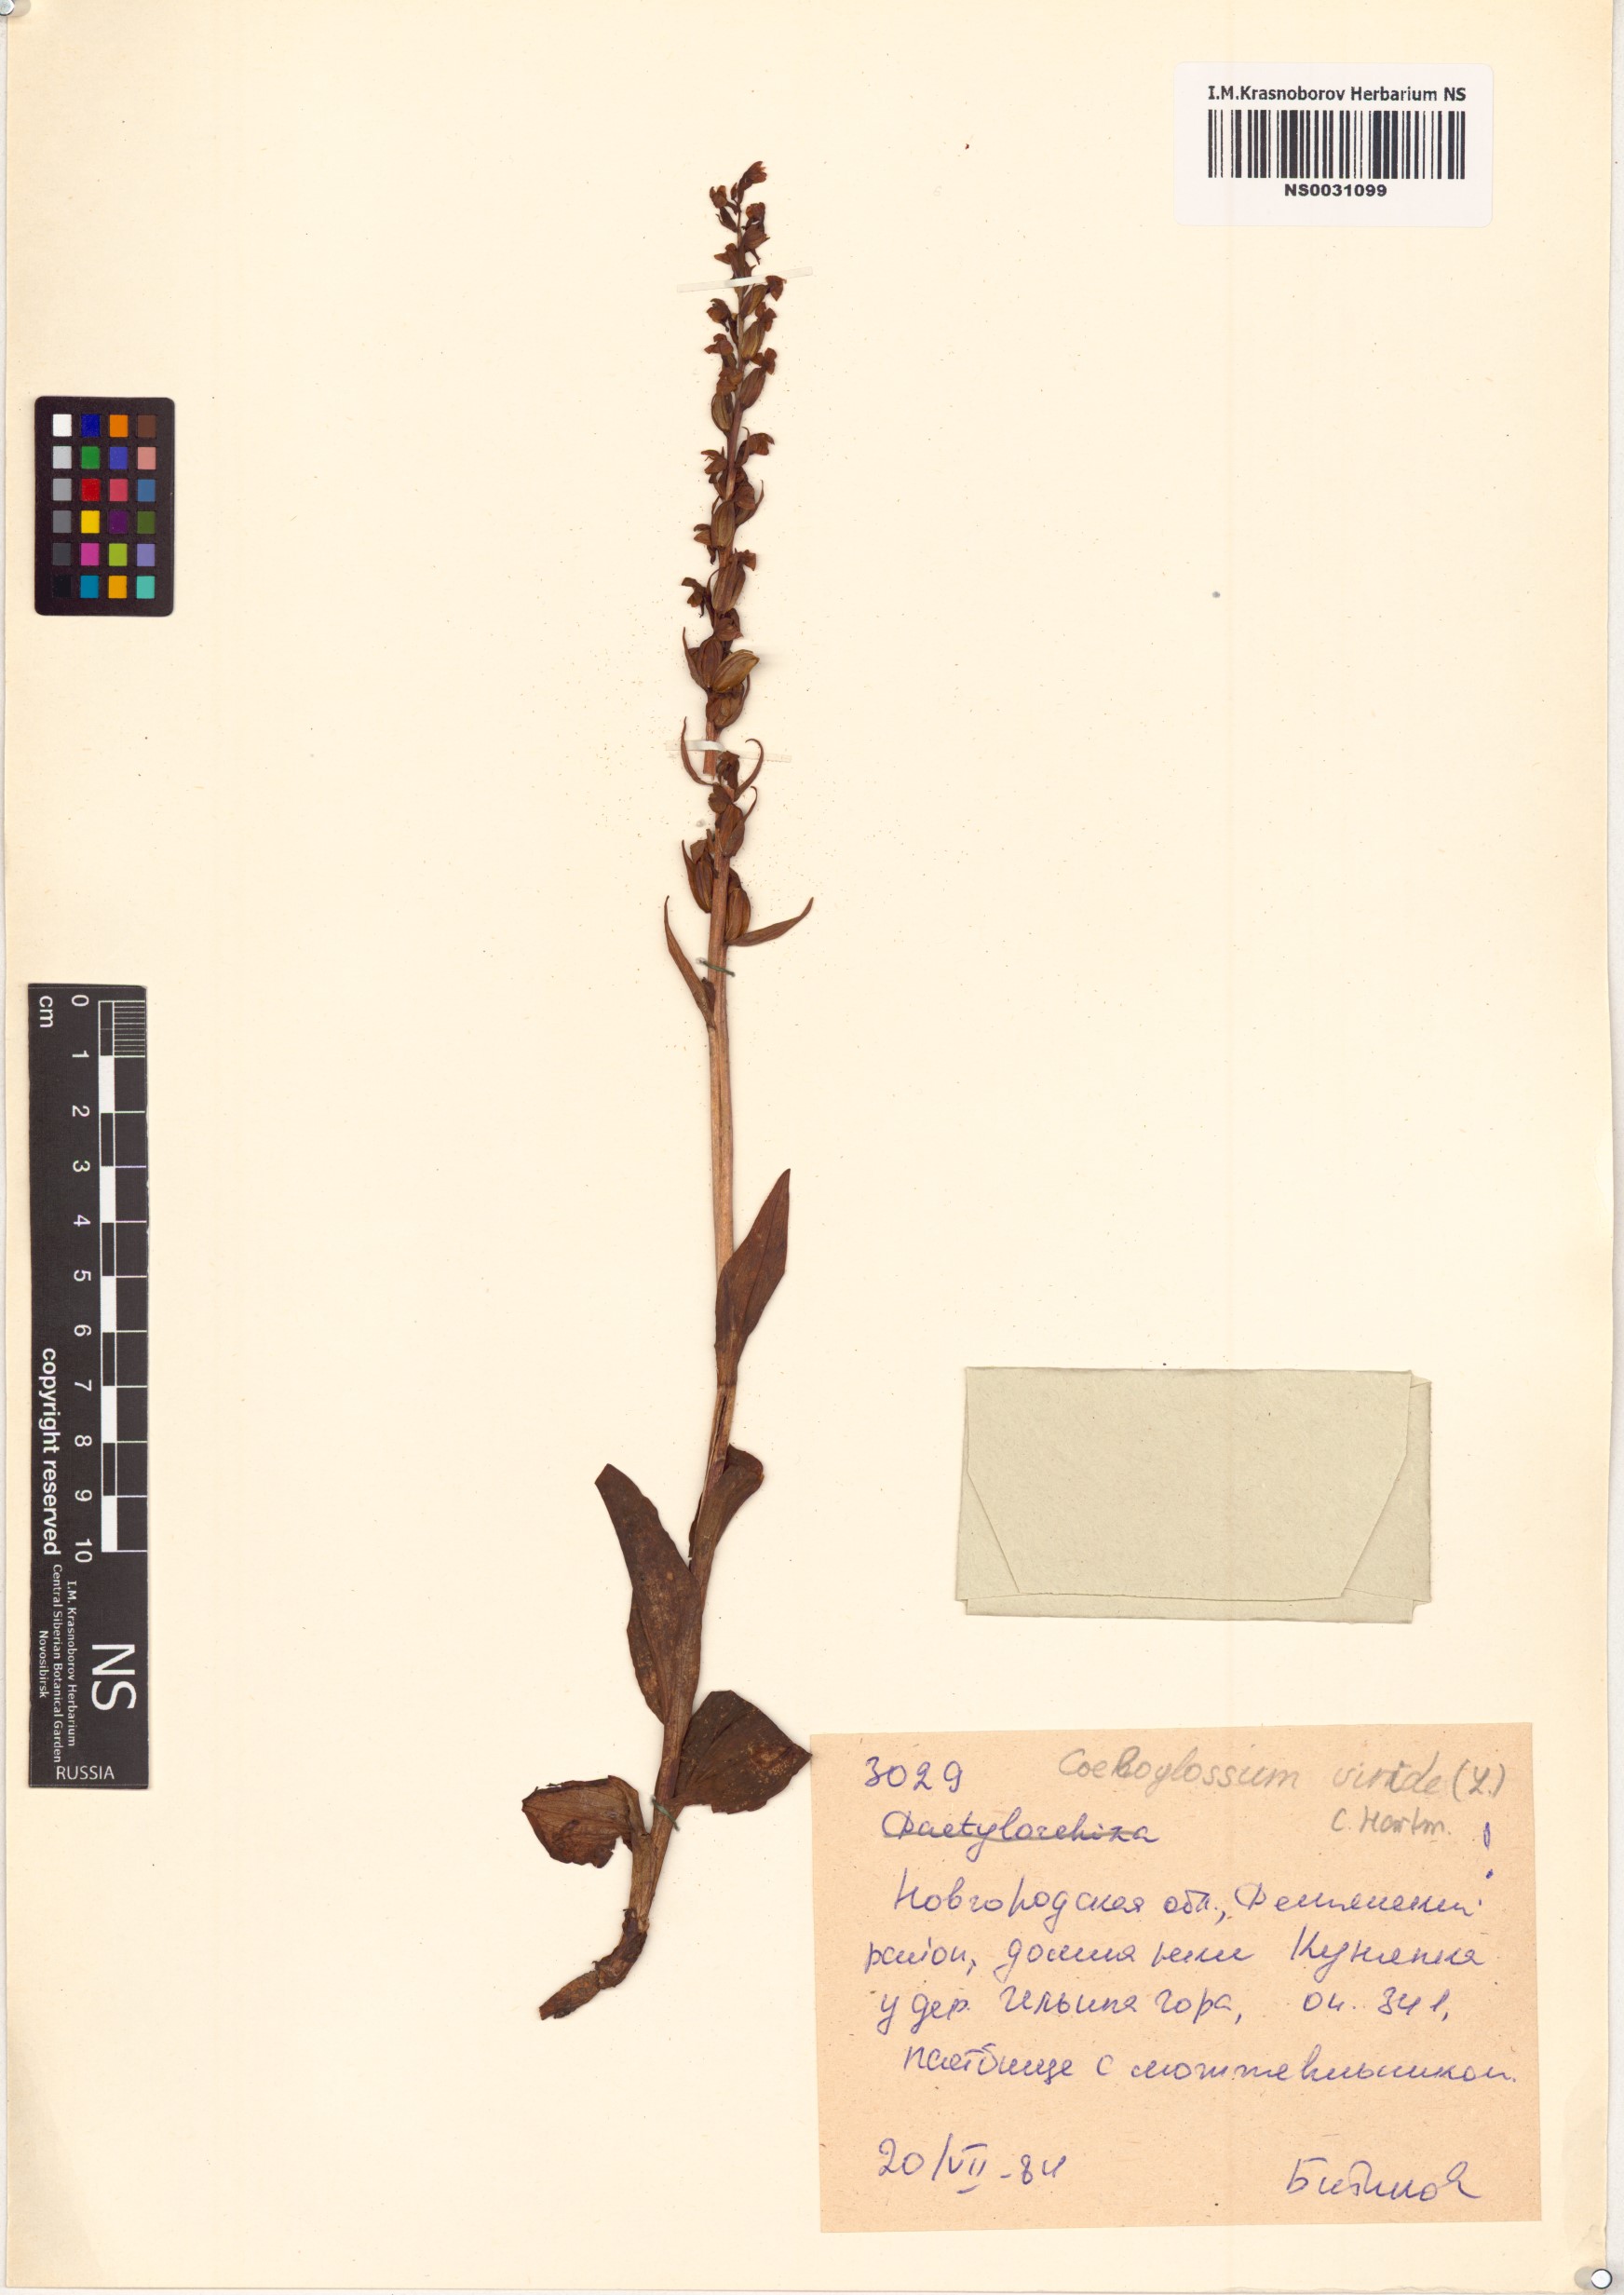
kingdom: Plantae
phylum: Tracheophyta
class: Liliopsida
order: Asparagales
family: Orchidaceae
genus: Dactylorhiza
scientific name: Dactylorhiza viridis
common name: Longbract frog orchid
